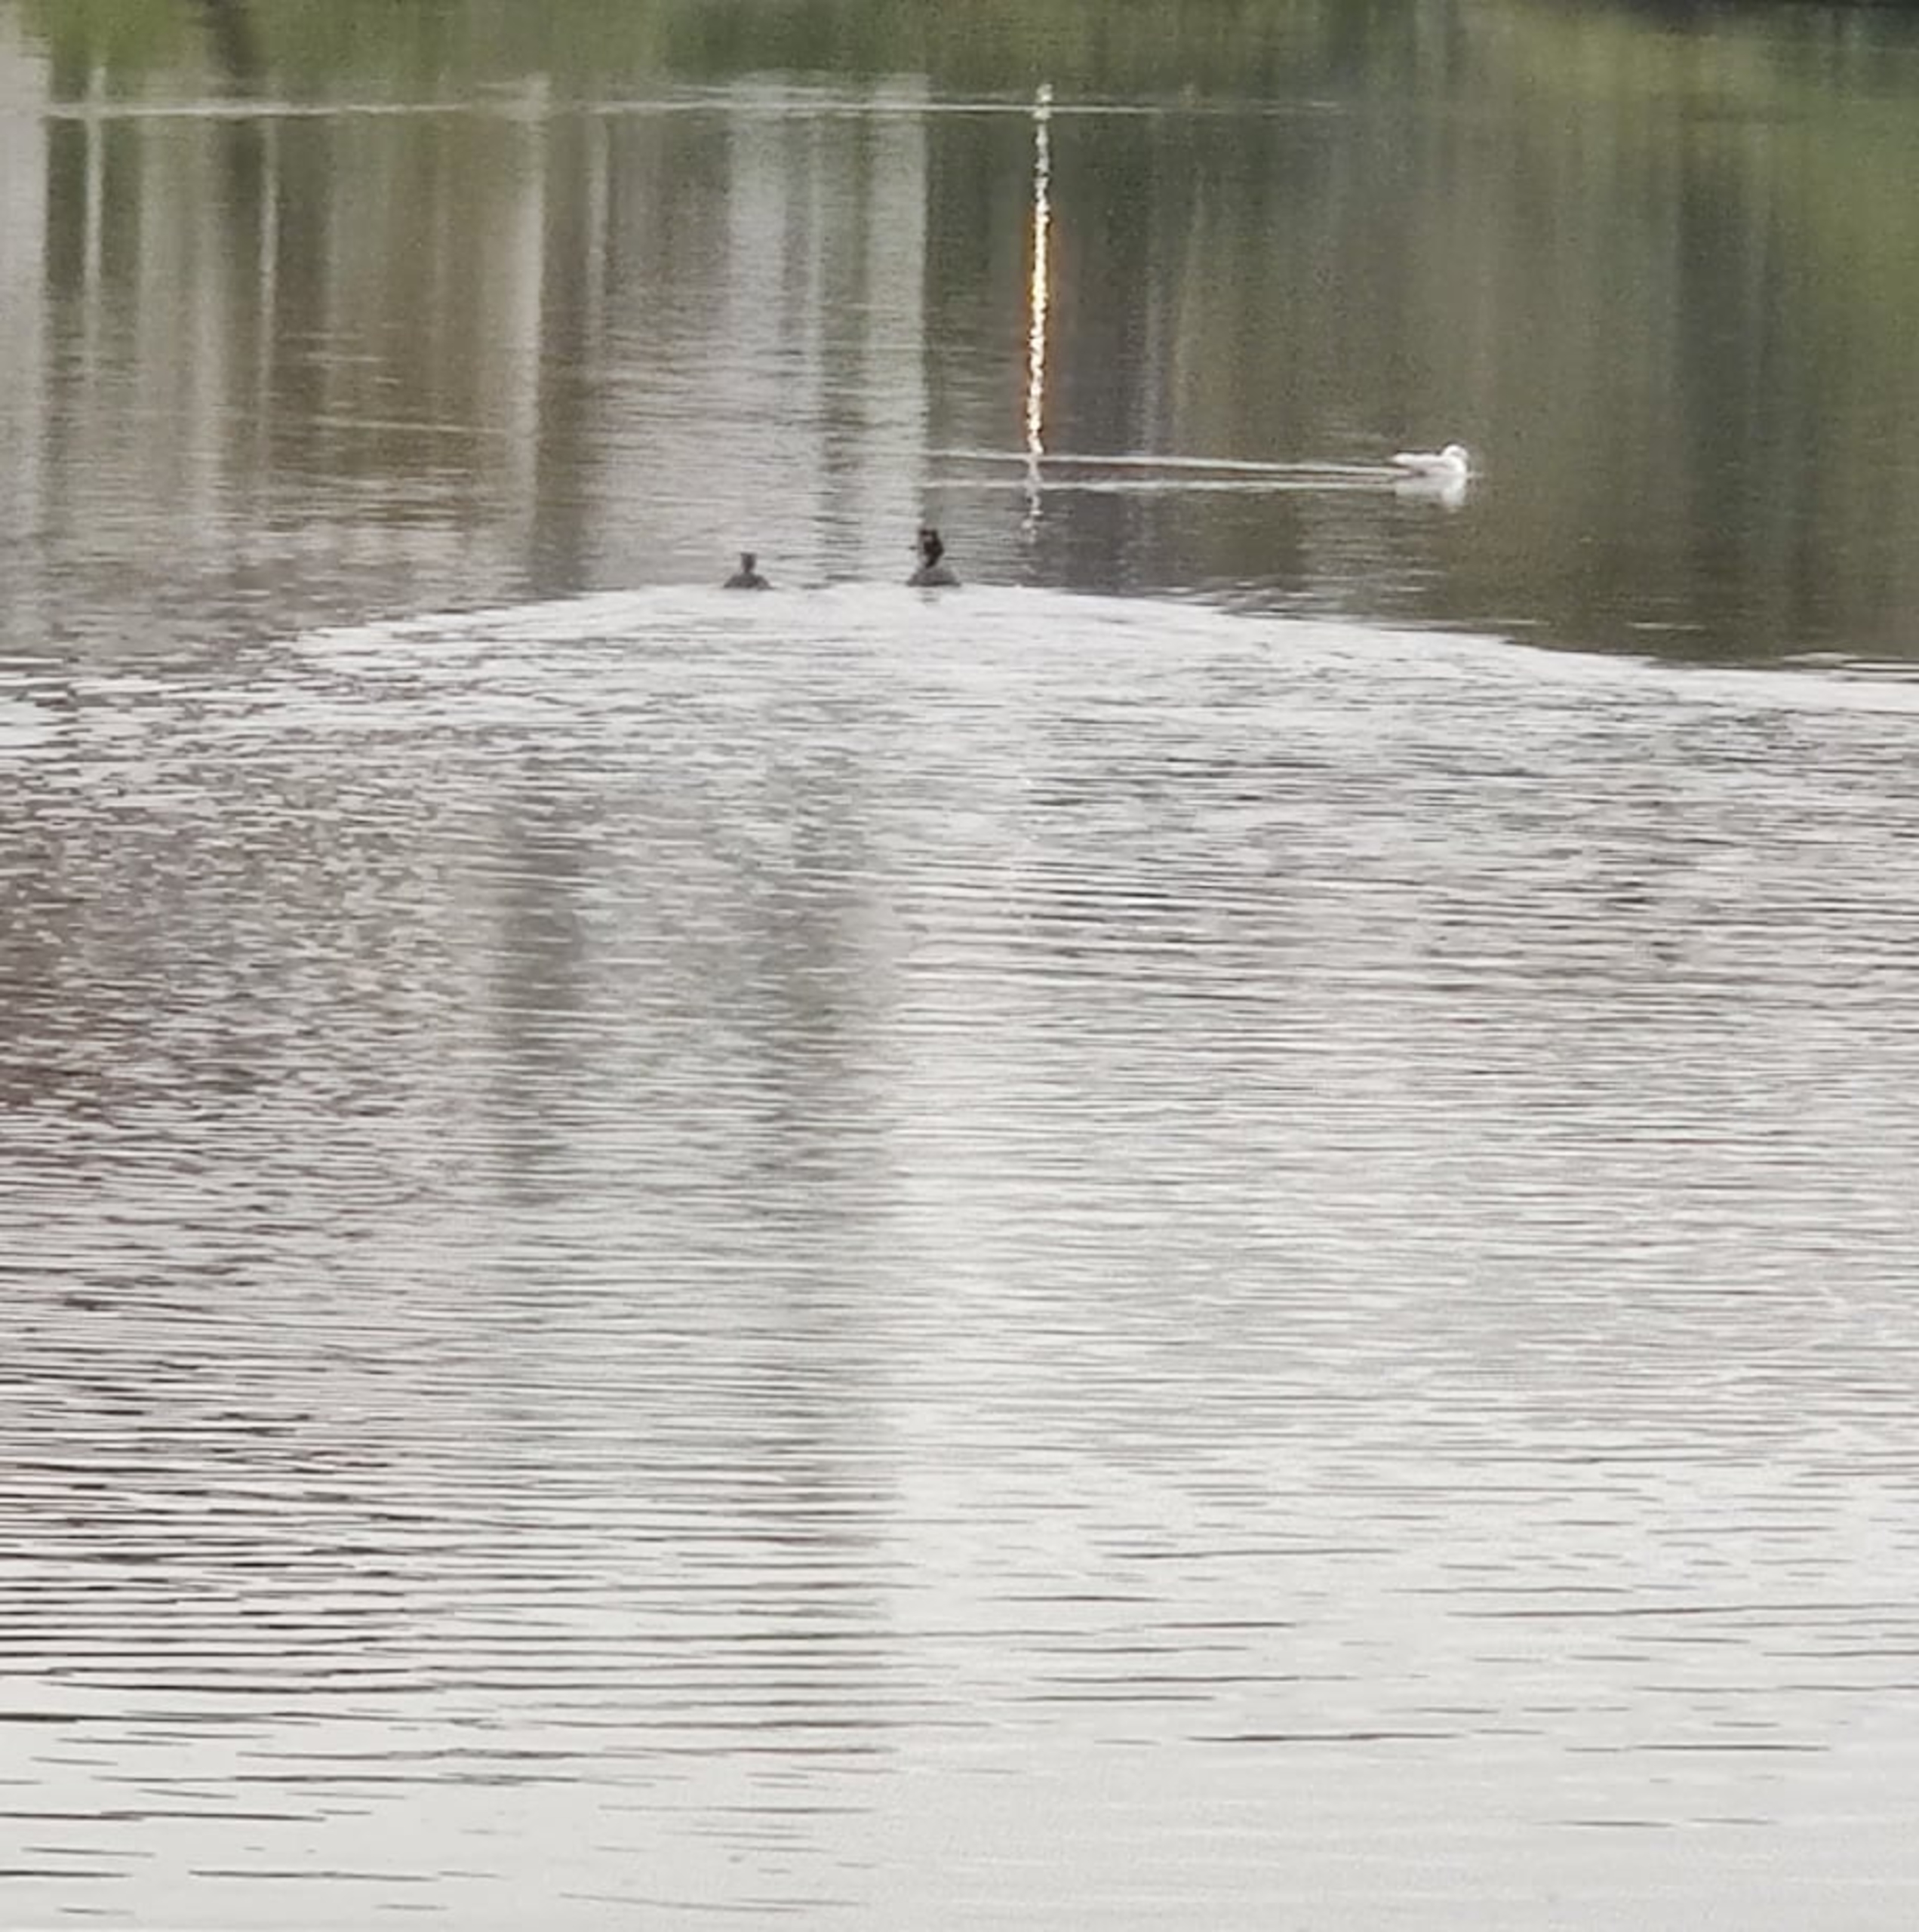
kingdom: Animalia
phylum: Chordata
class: Aves
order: Podicipediformes
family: Podicipedidae
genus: Podiceps
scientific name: Podiceps cristatus
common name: Toppet lappedykker
